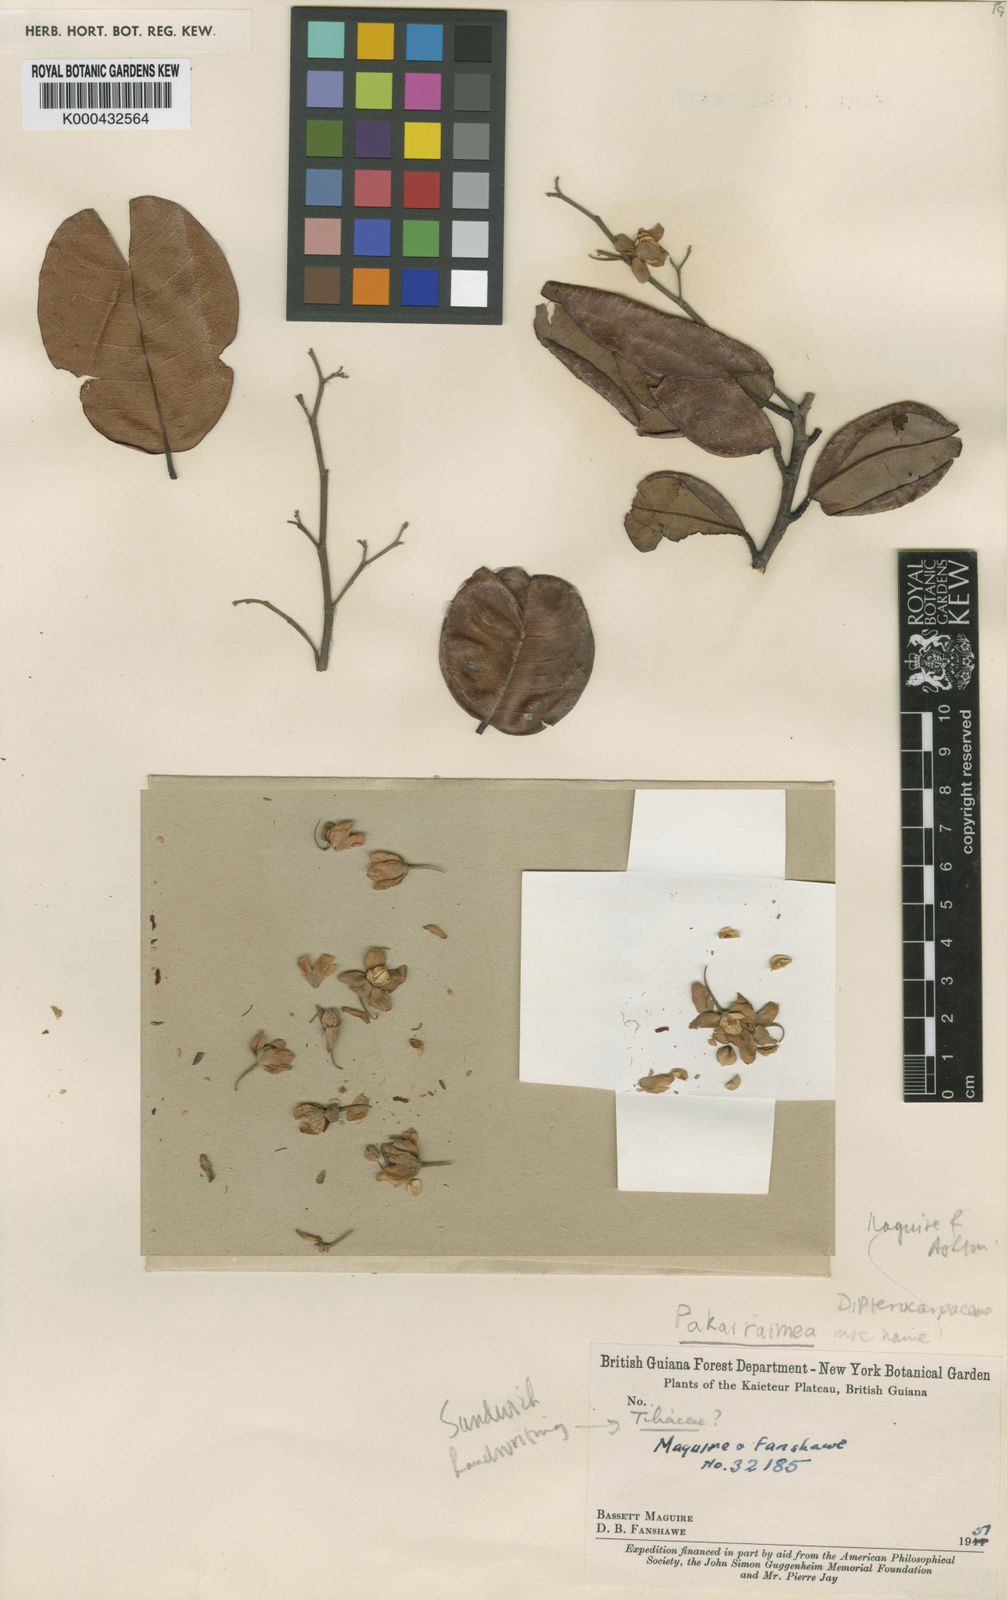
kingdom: Plantae
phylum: Tracheophyta
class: Magnoliopsida
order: Malvales
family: Dipterocarpaceae
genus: Pakaraimaea
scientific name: Pakaraimaea dipterocarpacea
